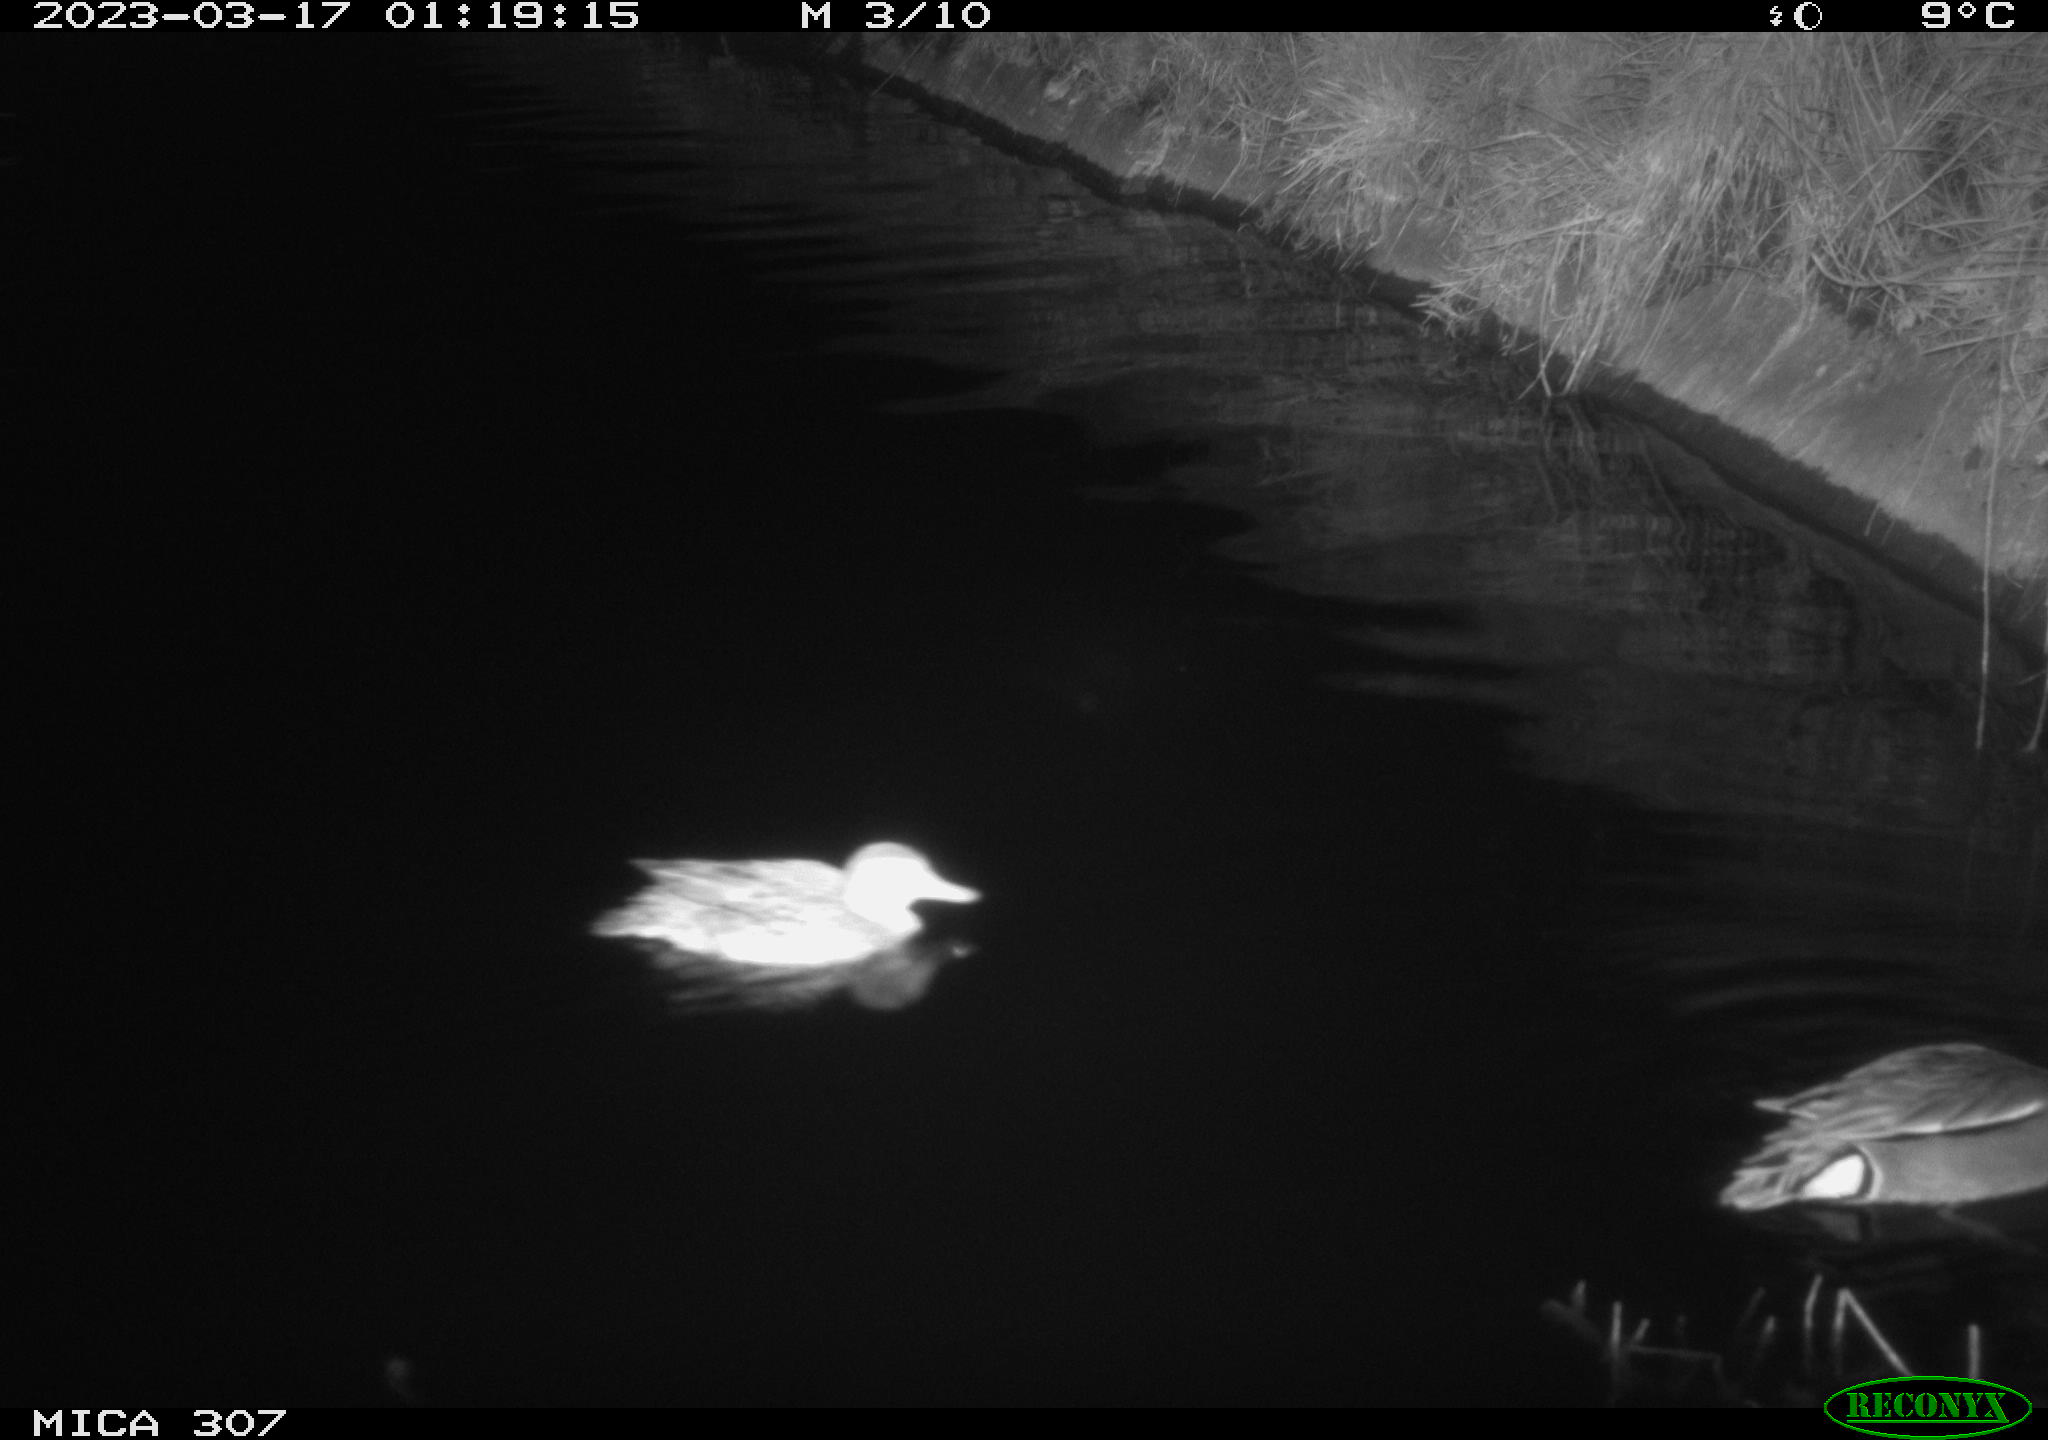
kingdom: Animalia
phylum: Chordata
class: Aves
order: Anseriformes
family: Anatidae
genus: Anas
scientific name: Anas
